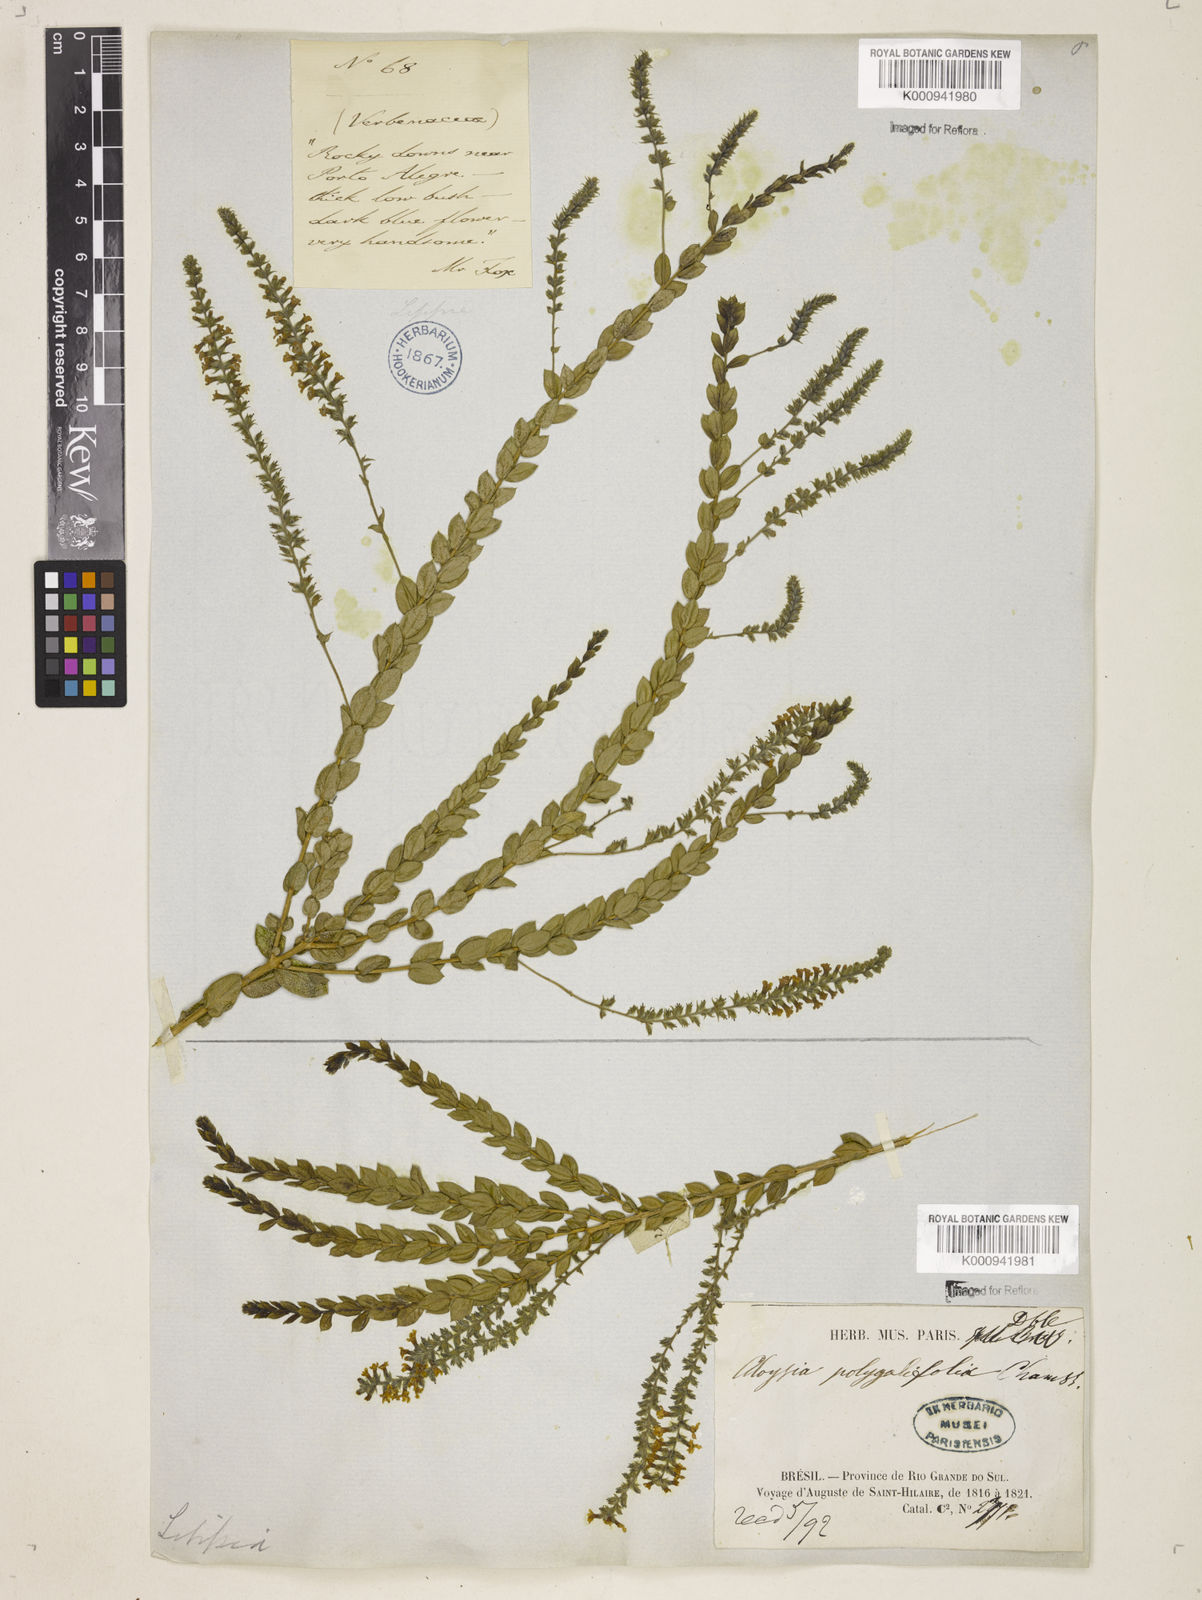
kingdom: Plantae
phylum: Tracheophyta
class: Magnoliopsida
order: Lamiales
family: Verbenaceae
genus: Aloysia
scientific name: Aloysia polygalifolia
